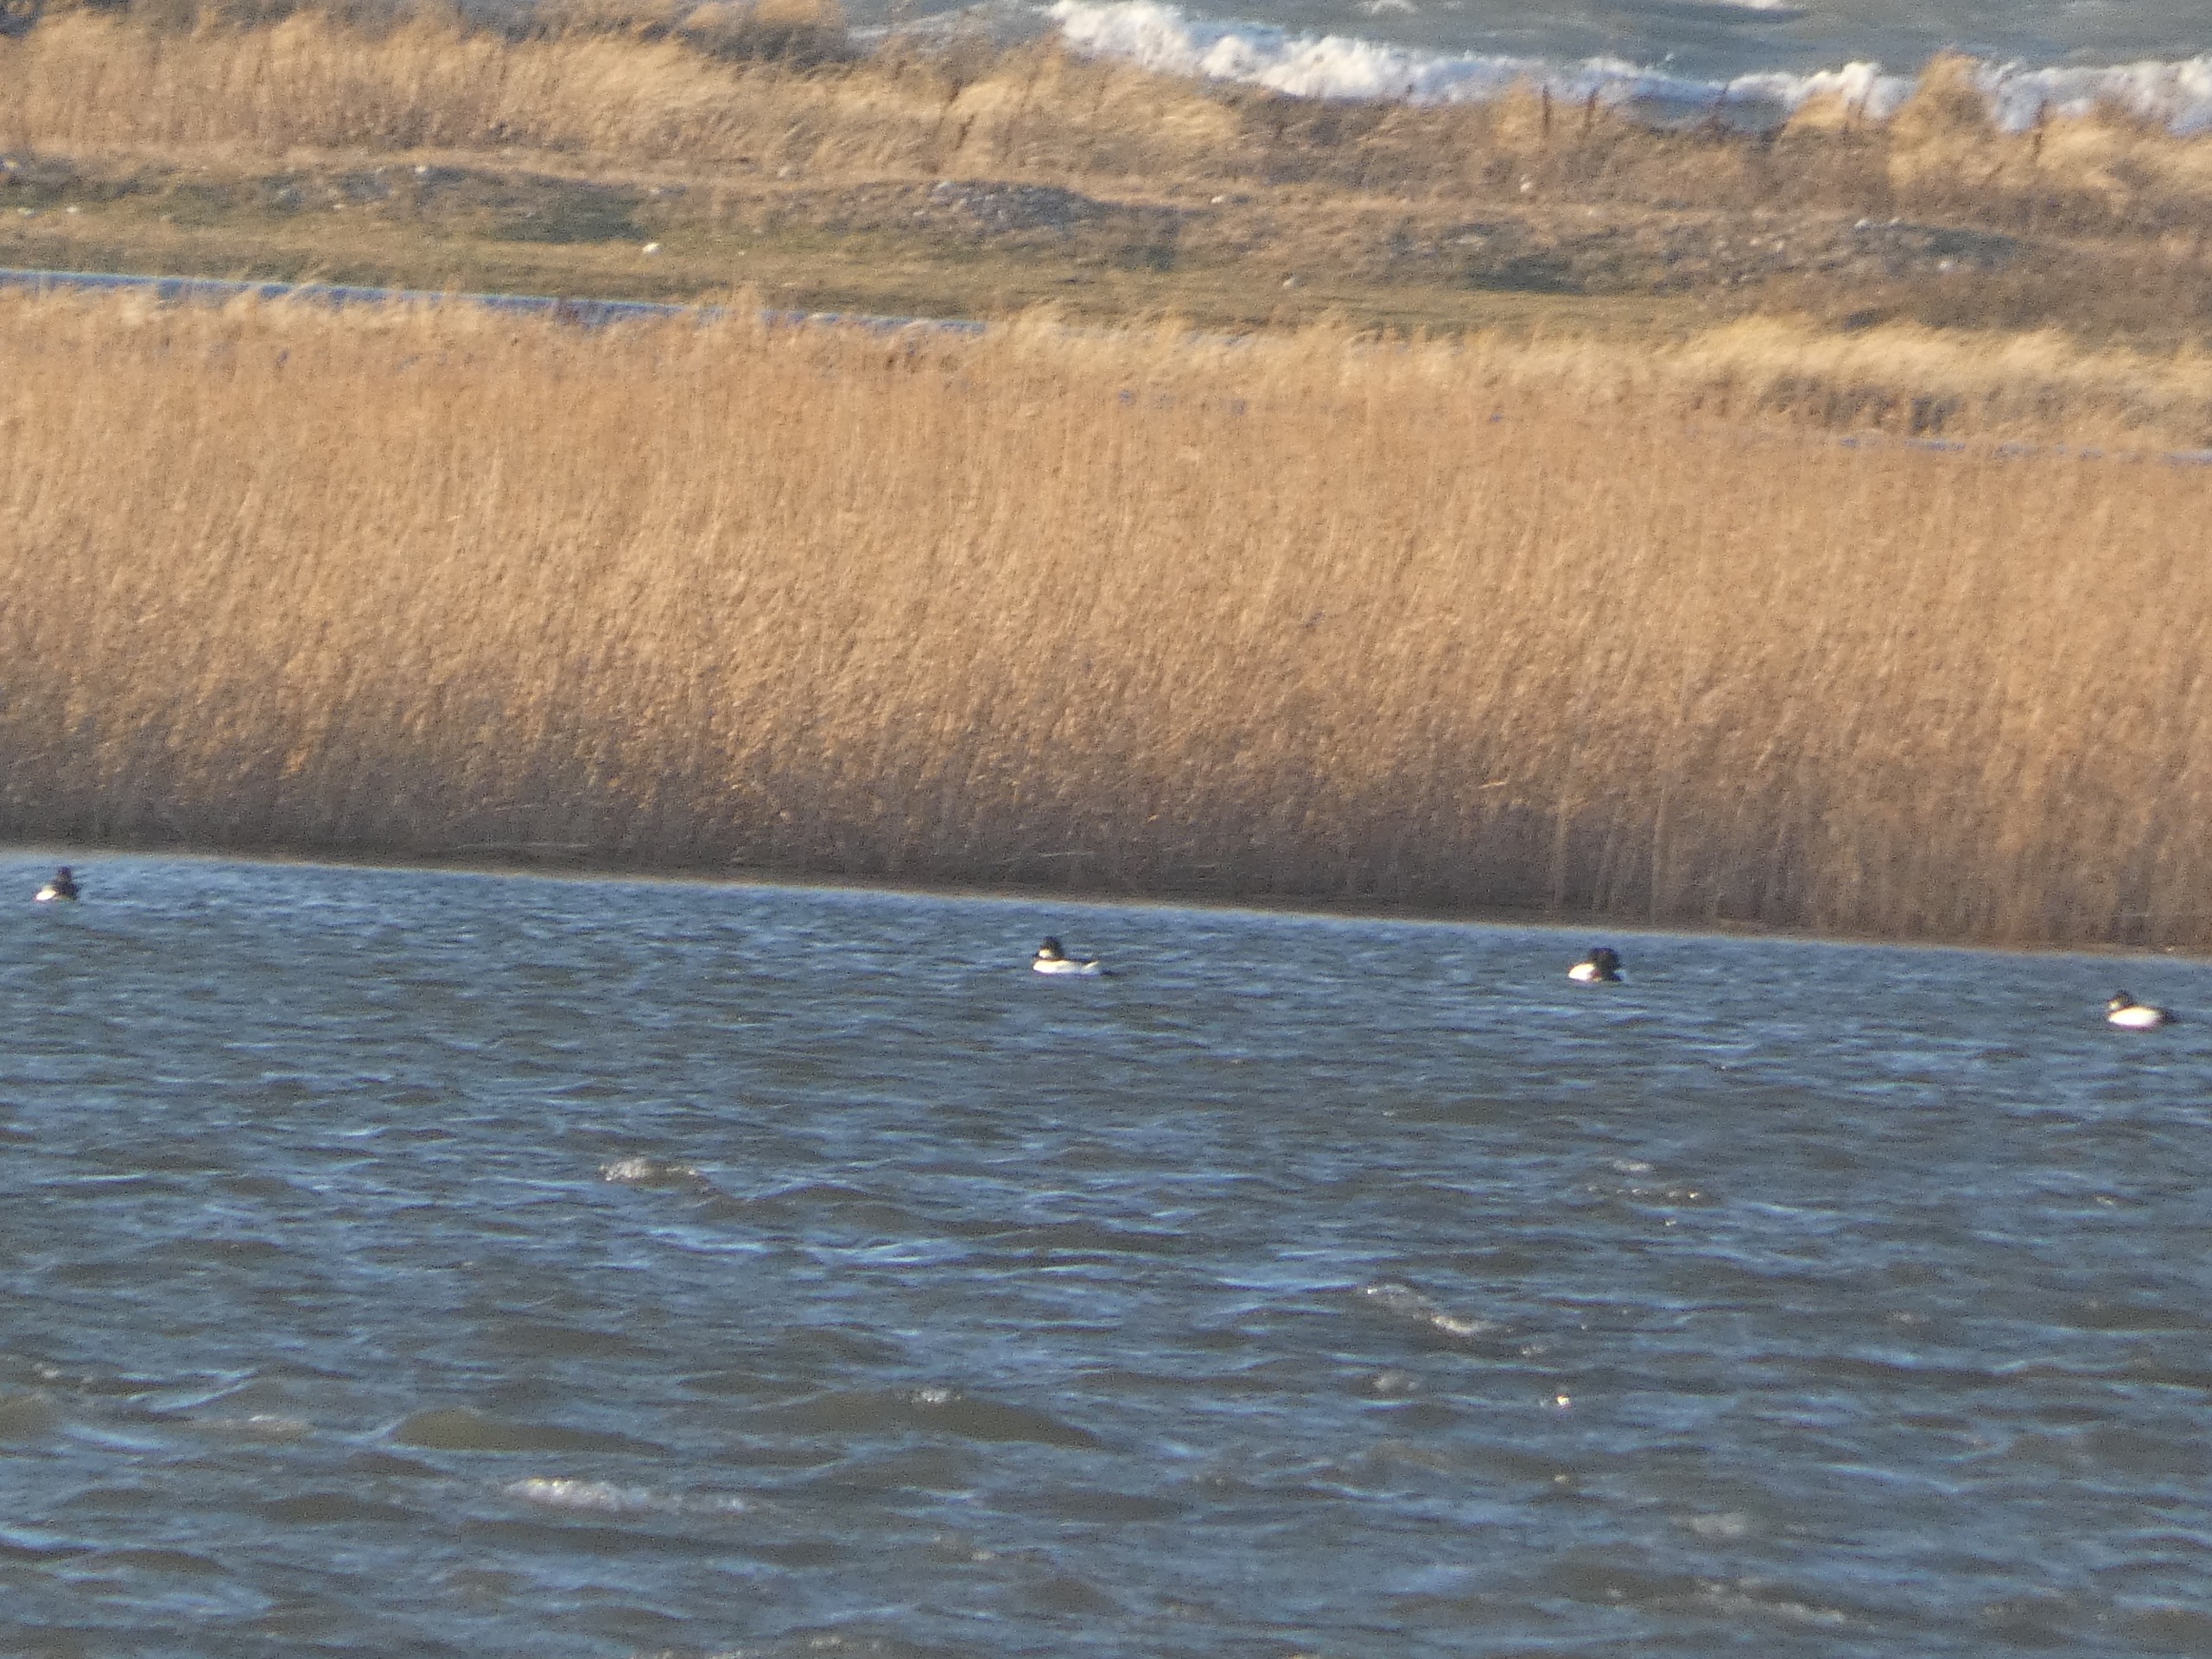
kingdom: Animalia
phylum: Chordata
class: Aves
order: Anseriformes
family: Anatidae
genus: Bucephala
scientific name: Bucephala clangula
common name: Hvinand
